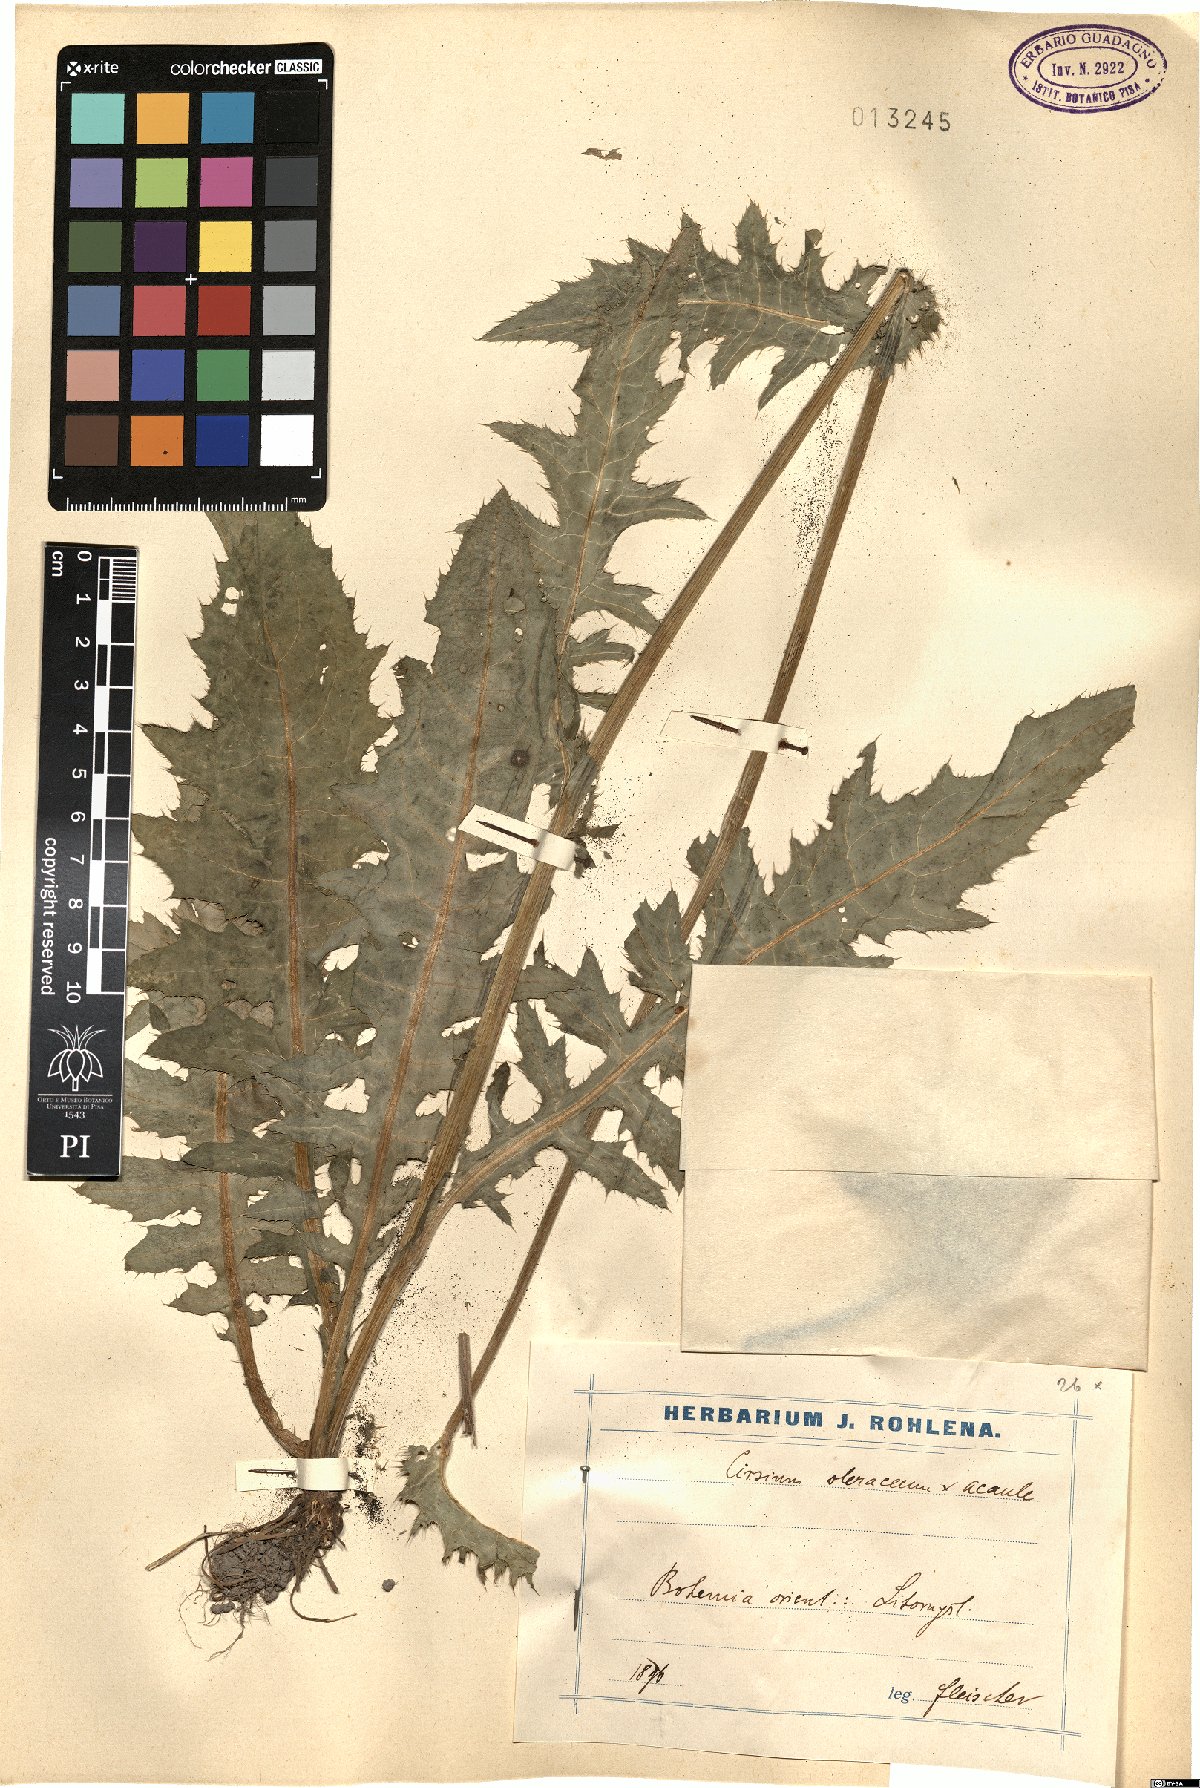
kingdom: Plantae
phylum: Tracheophyta
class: Magnoliopsida
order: Asterales
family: Asteraceae
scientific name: Asteraceae
